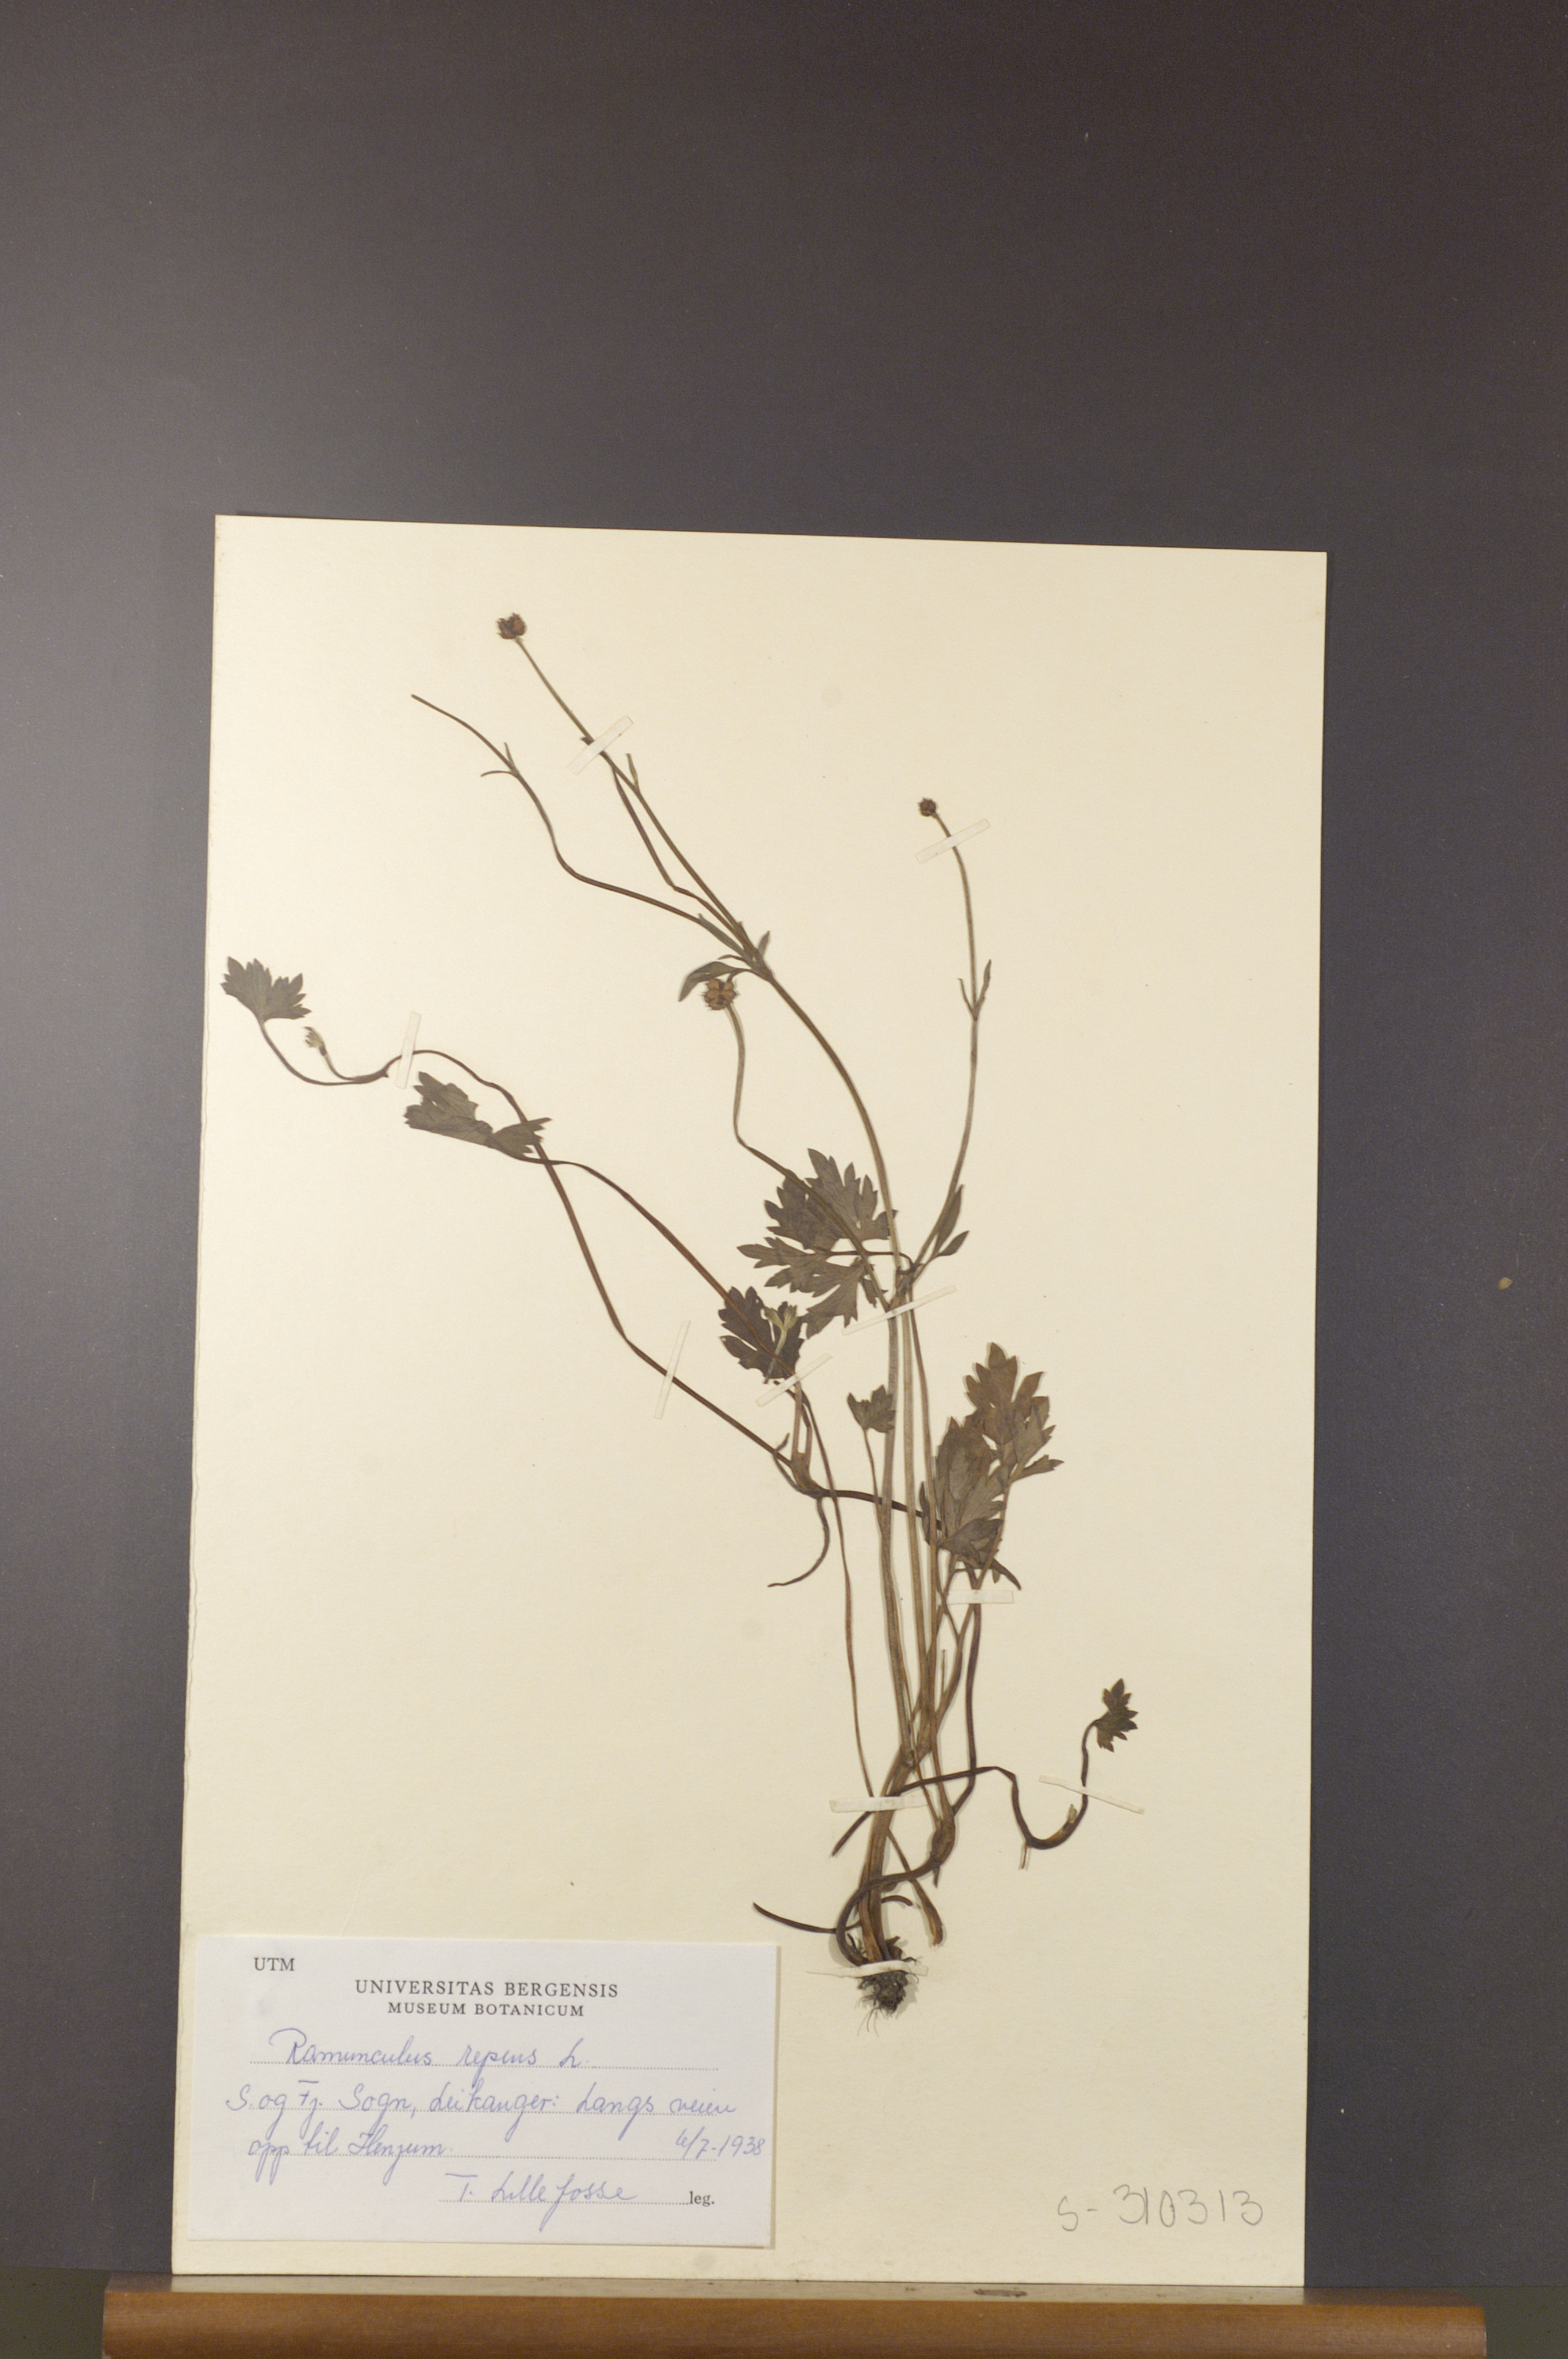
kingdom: Plantae
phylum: Tracheophyta
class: Magnoliopsida
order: Ranunculales
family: Ranunculaceae
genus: Ranunculus
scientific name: Ranunculus repens
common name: Creeping buttercup
